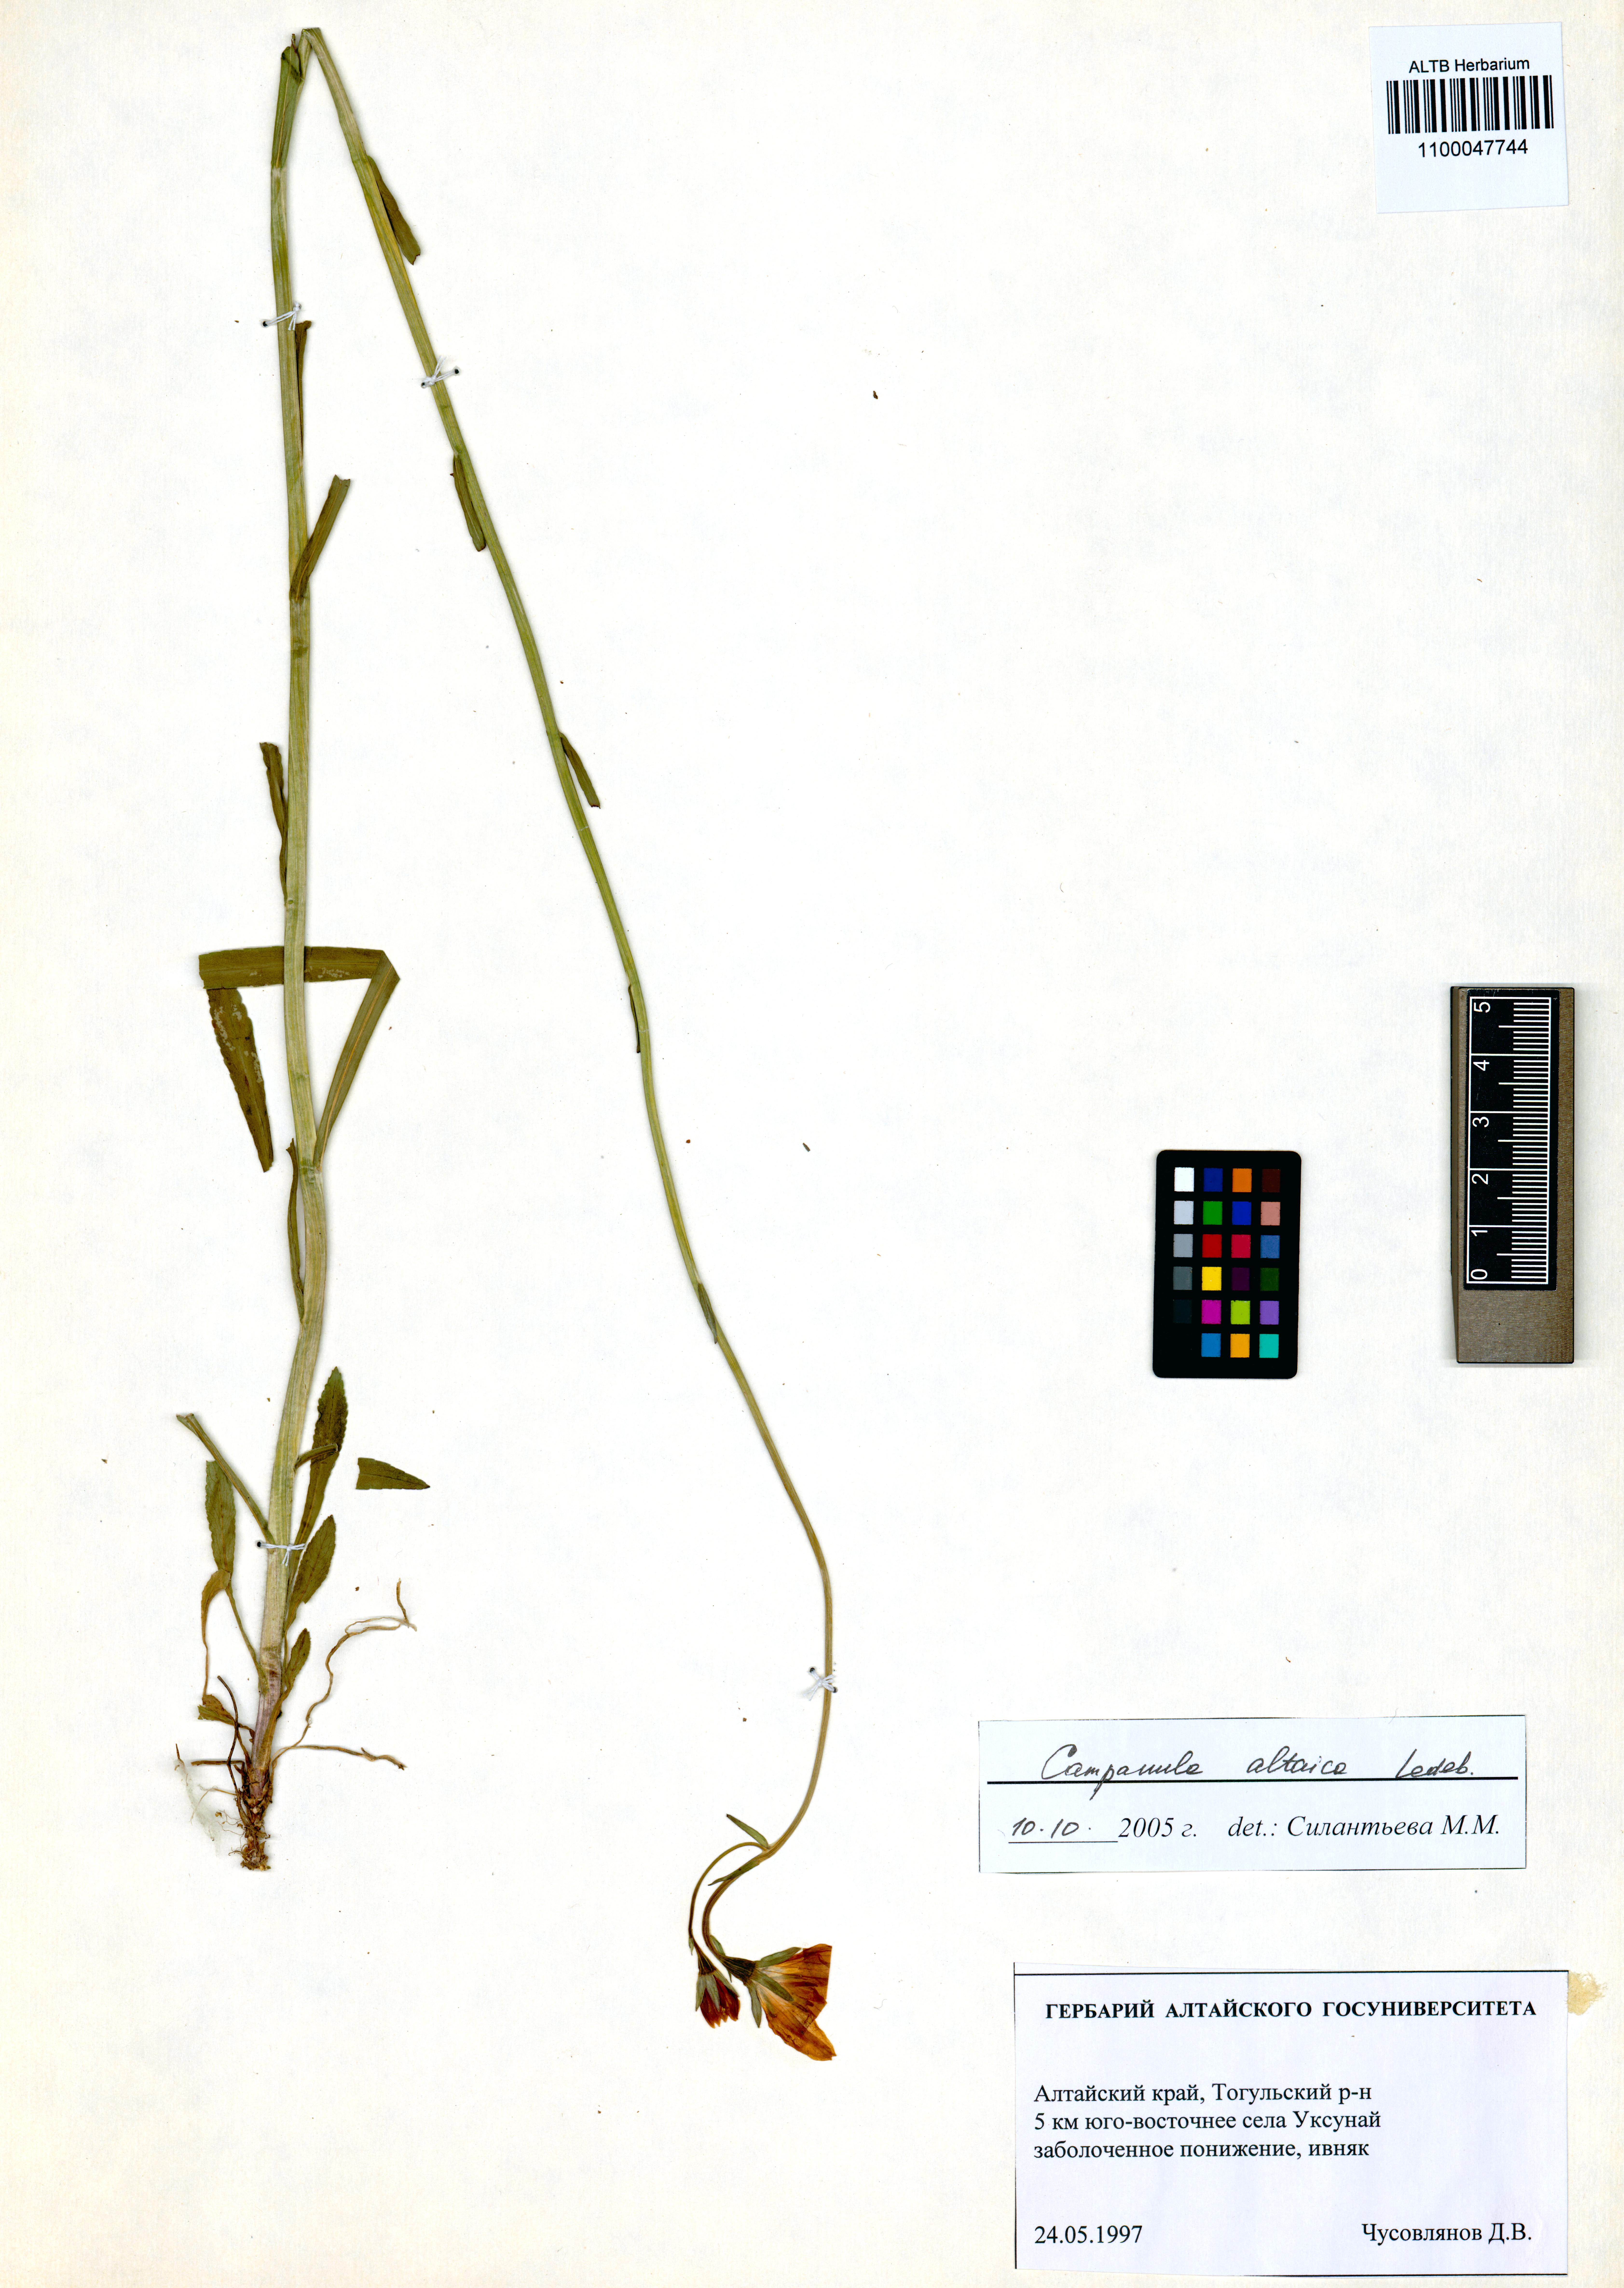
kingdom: Plantae
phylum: Tracheophyta
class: Magnoliopsida
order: Asterales
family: Campanulaceae
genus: Campanula
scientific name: Campanula stevenii
